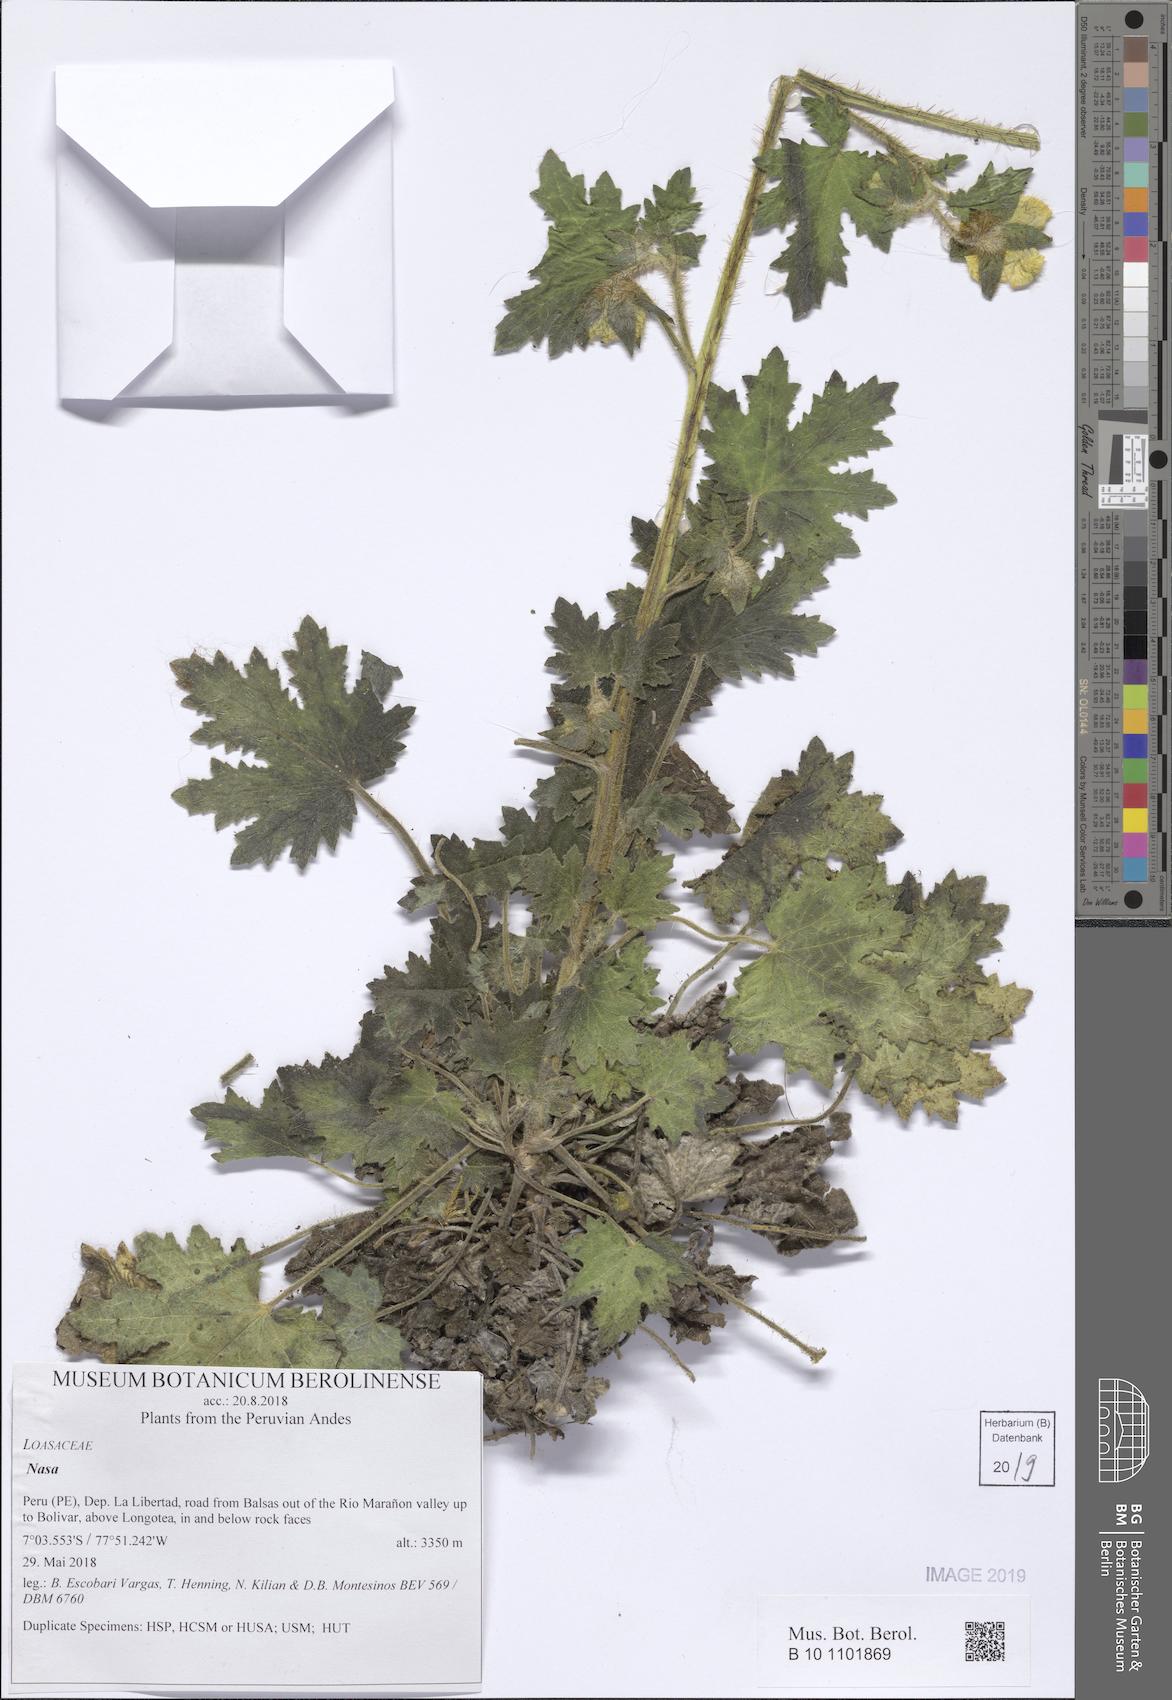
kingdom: Plantae
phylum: Tracheophyta
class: Magnoliopsida
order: Cornales
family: Loasaceae
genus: Nasa
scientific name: Nasa ranunculifolia
